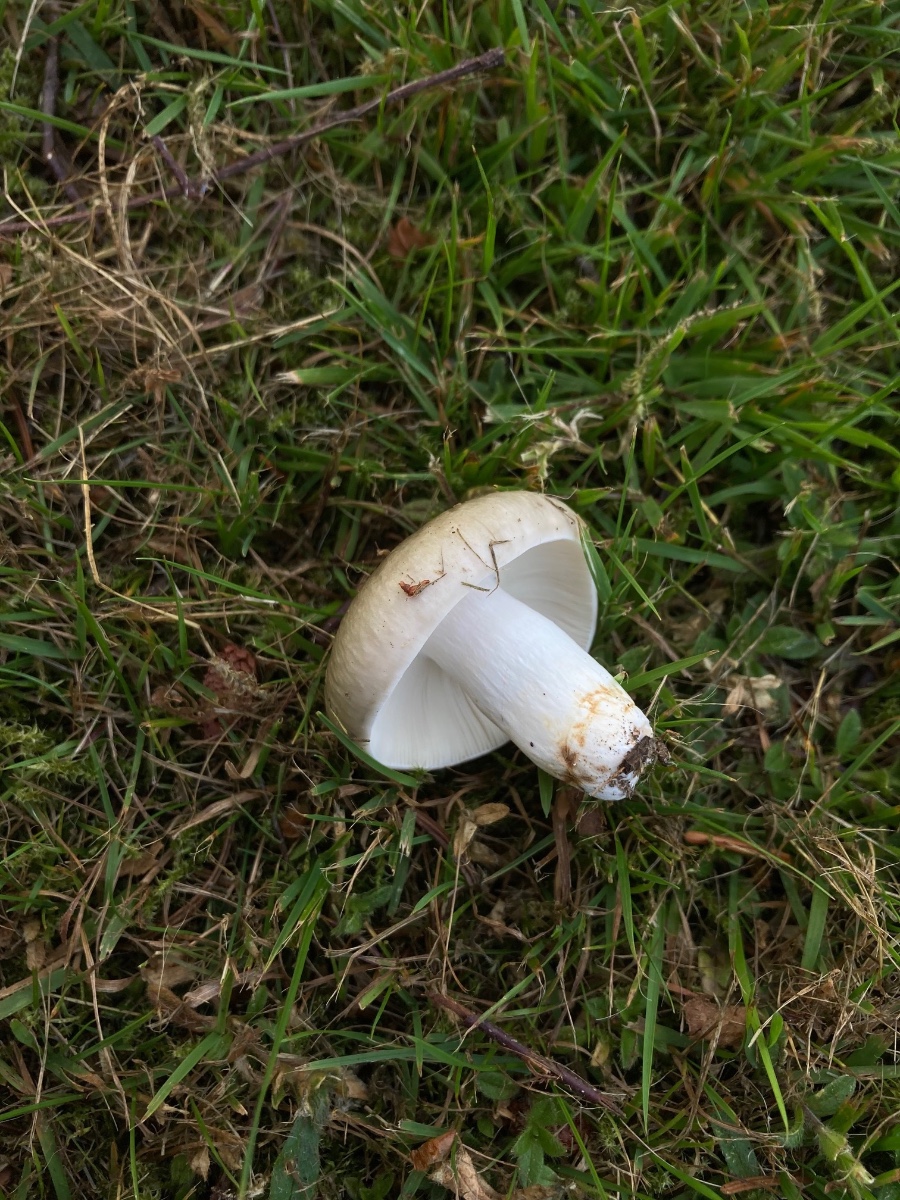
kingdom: Fungi
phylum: Basidiomycota
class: Agaricomycetes
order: Russulales
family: Russulaceae
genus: Russula
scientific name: Russula aeruginea
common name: græsgrøn skørhat
